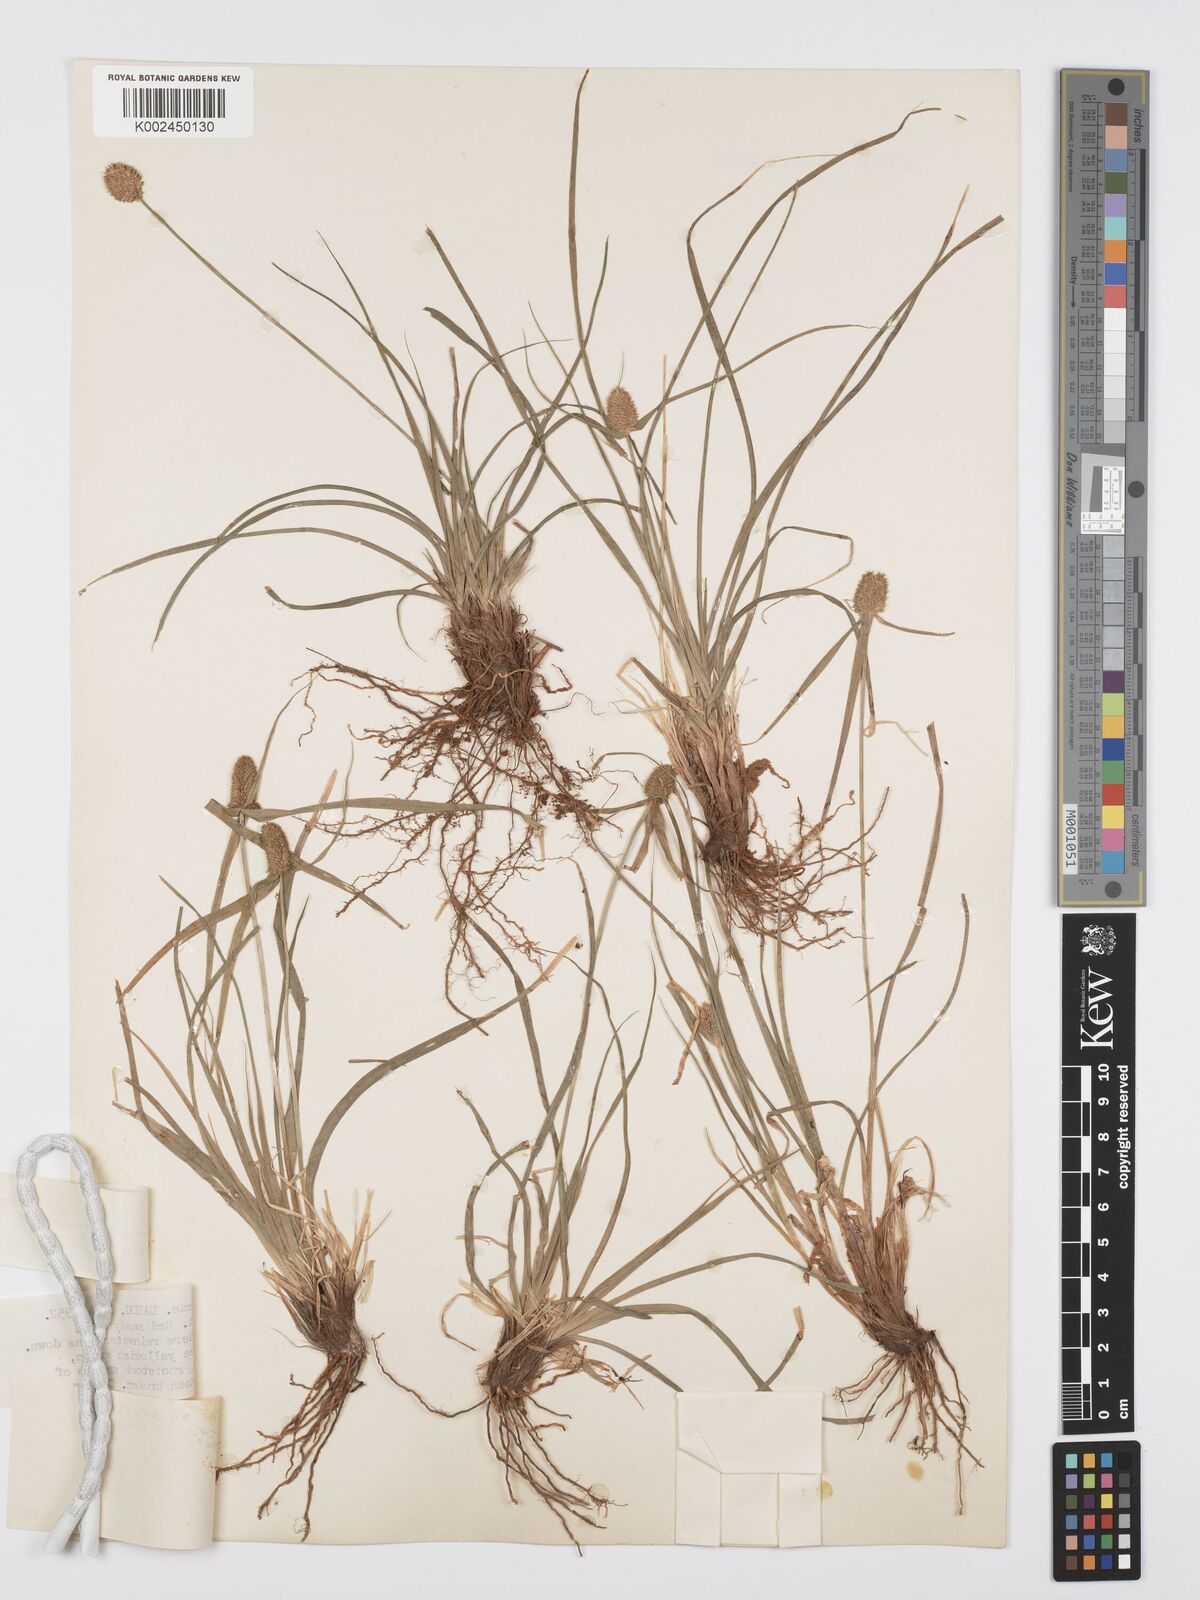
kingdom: Plantae
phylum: Tracheophyta
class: Liliopsida
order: Poales
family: Cyperaceae
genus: Cyperus
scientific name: Cyperus alatus
